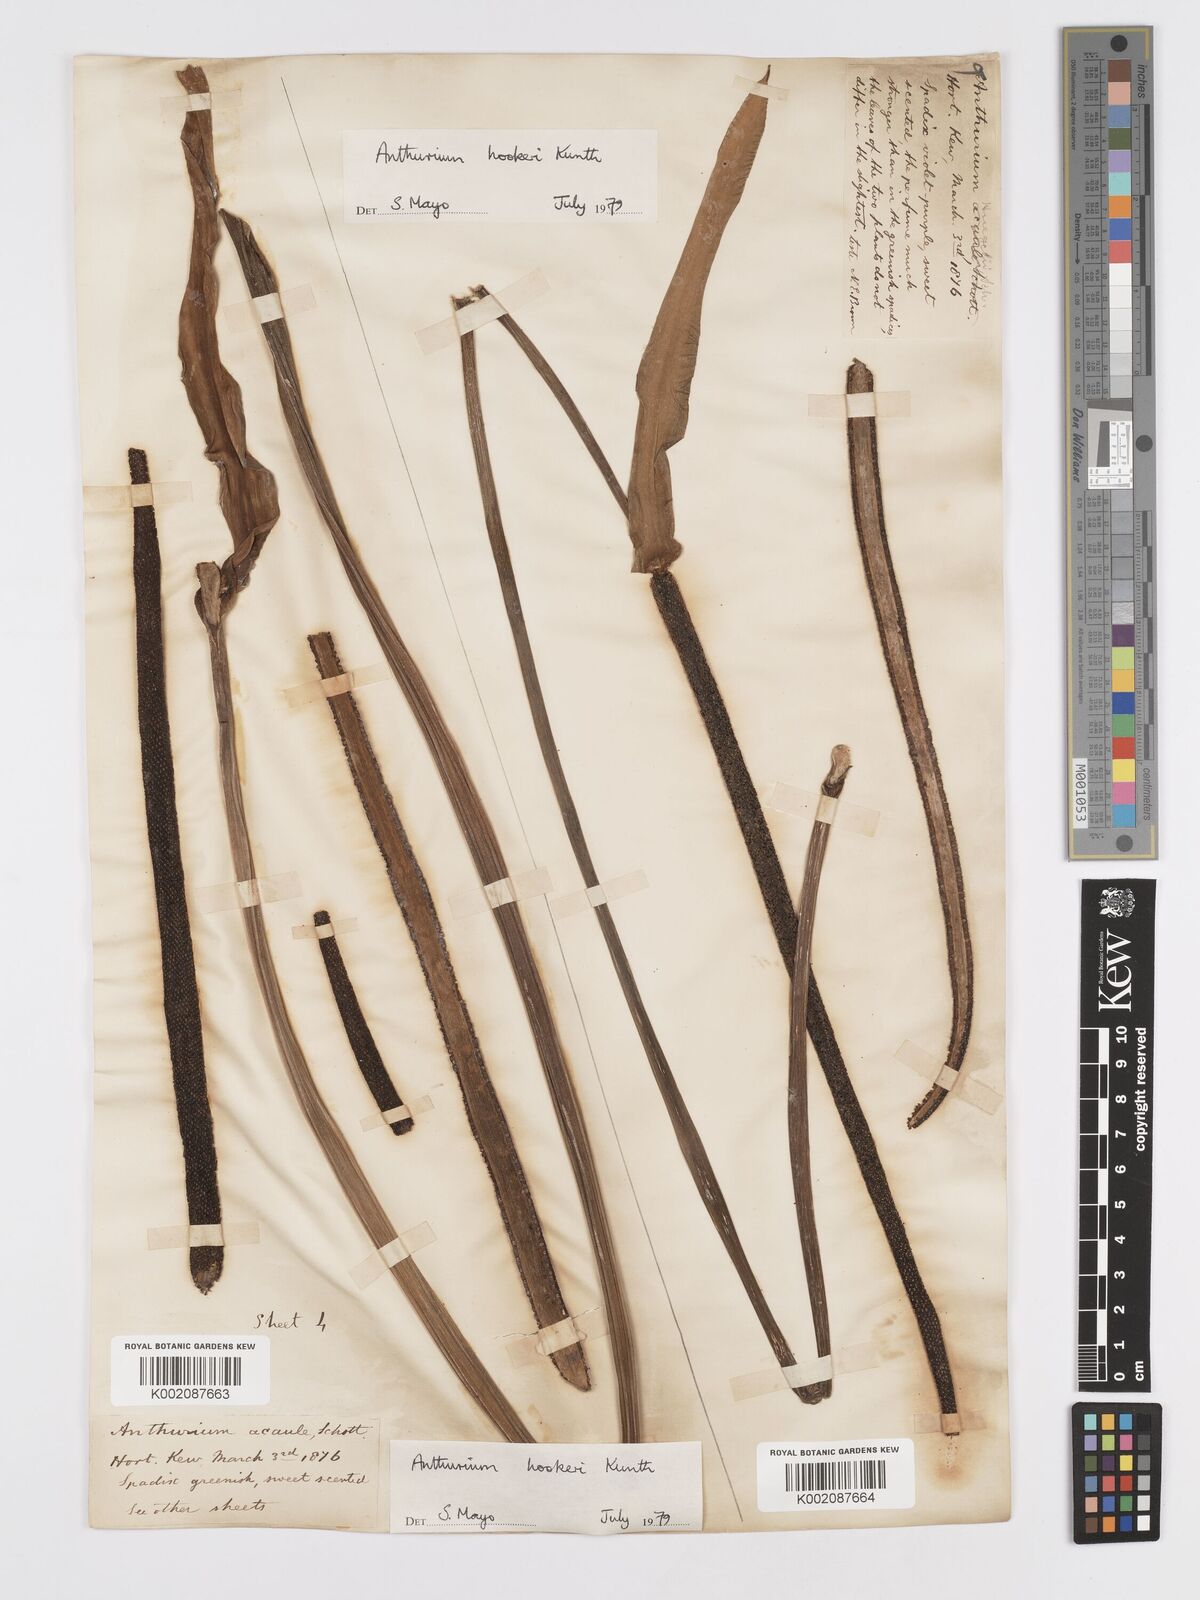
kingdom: Plantae
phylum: Tracheophyta
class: Liliopsida
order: Alismatales
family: Araceae
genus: Anthurium
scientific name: Anthurium hookeri
